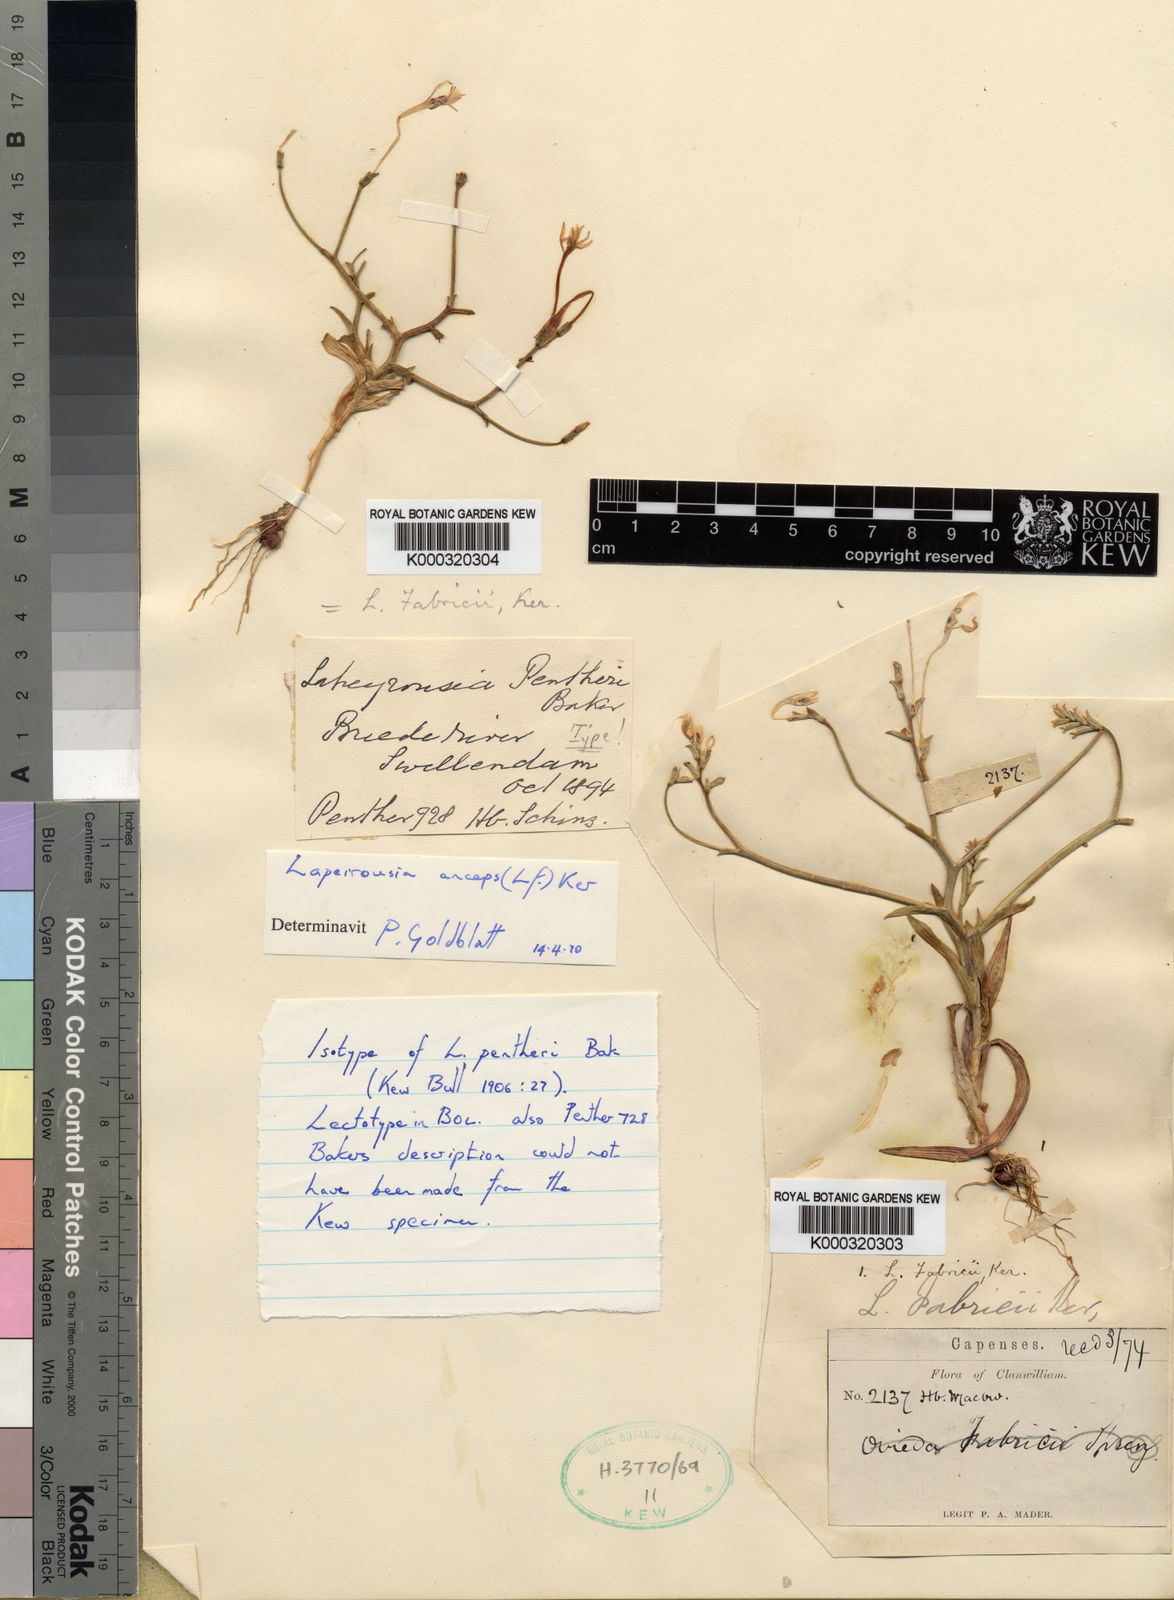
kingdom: Plantae
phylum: Tracheophyta
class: Liliopsida
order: Asparagales
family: Iridaceae
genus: Lapeirousia
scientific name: Lapeirousia anceps
